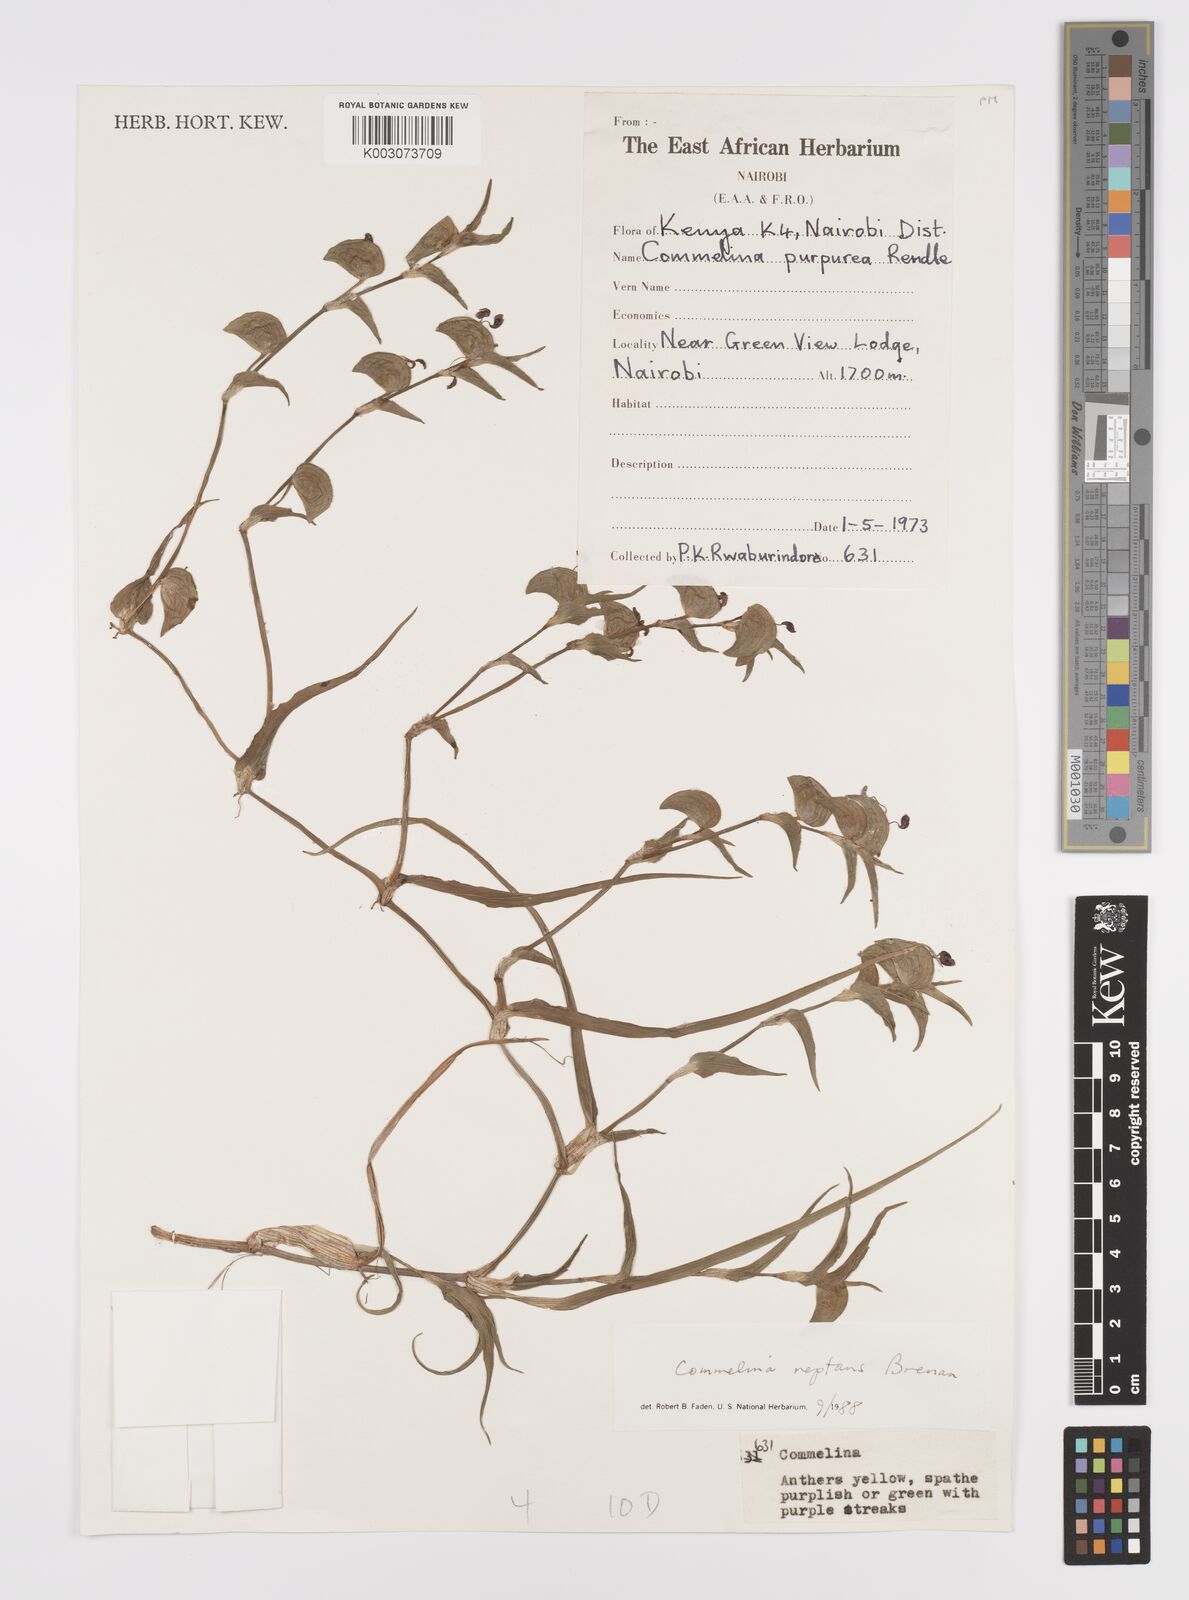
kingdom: Plantae
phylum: Tracheophyta
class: Liliopsida
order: Commelinales
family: Commelinaceae
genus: Commelina
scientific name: Commelina reptans
